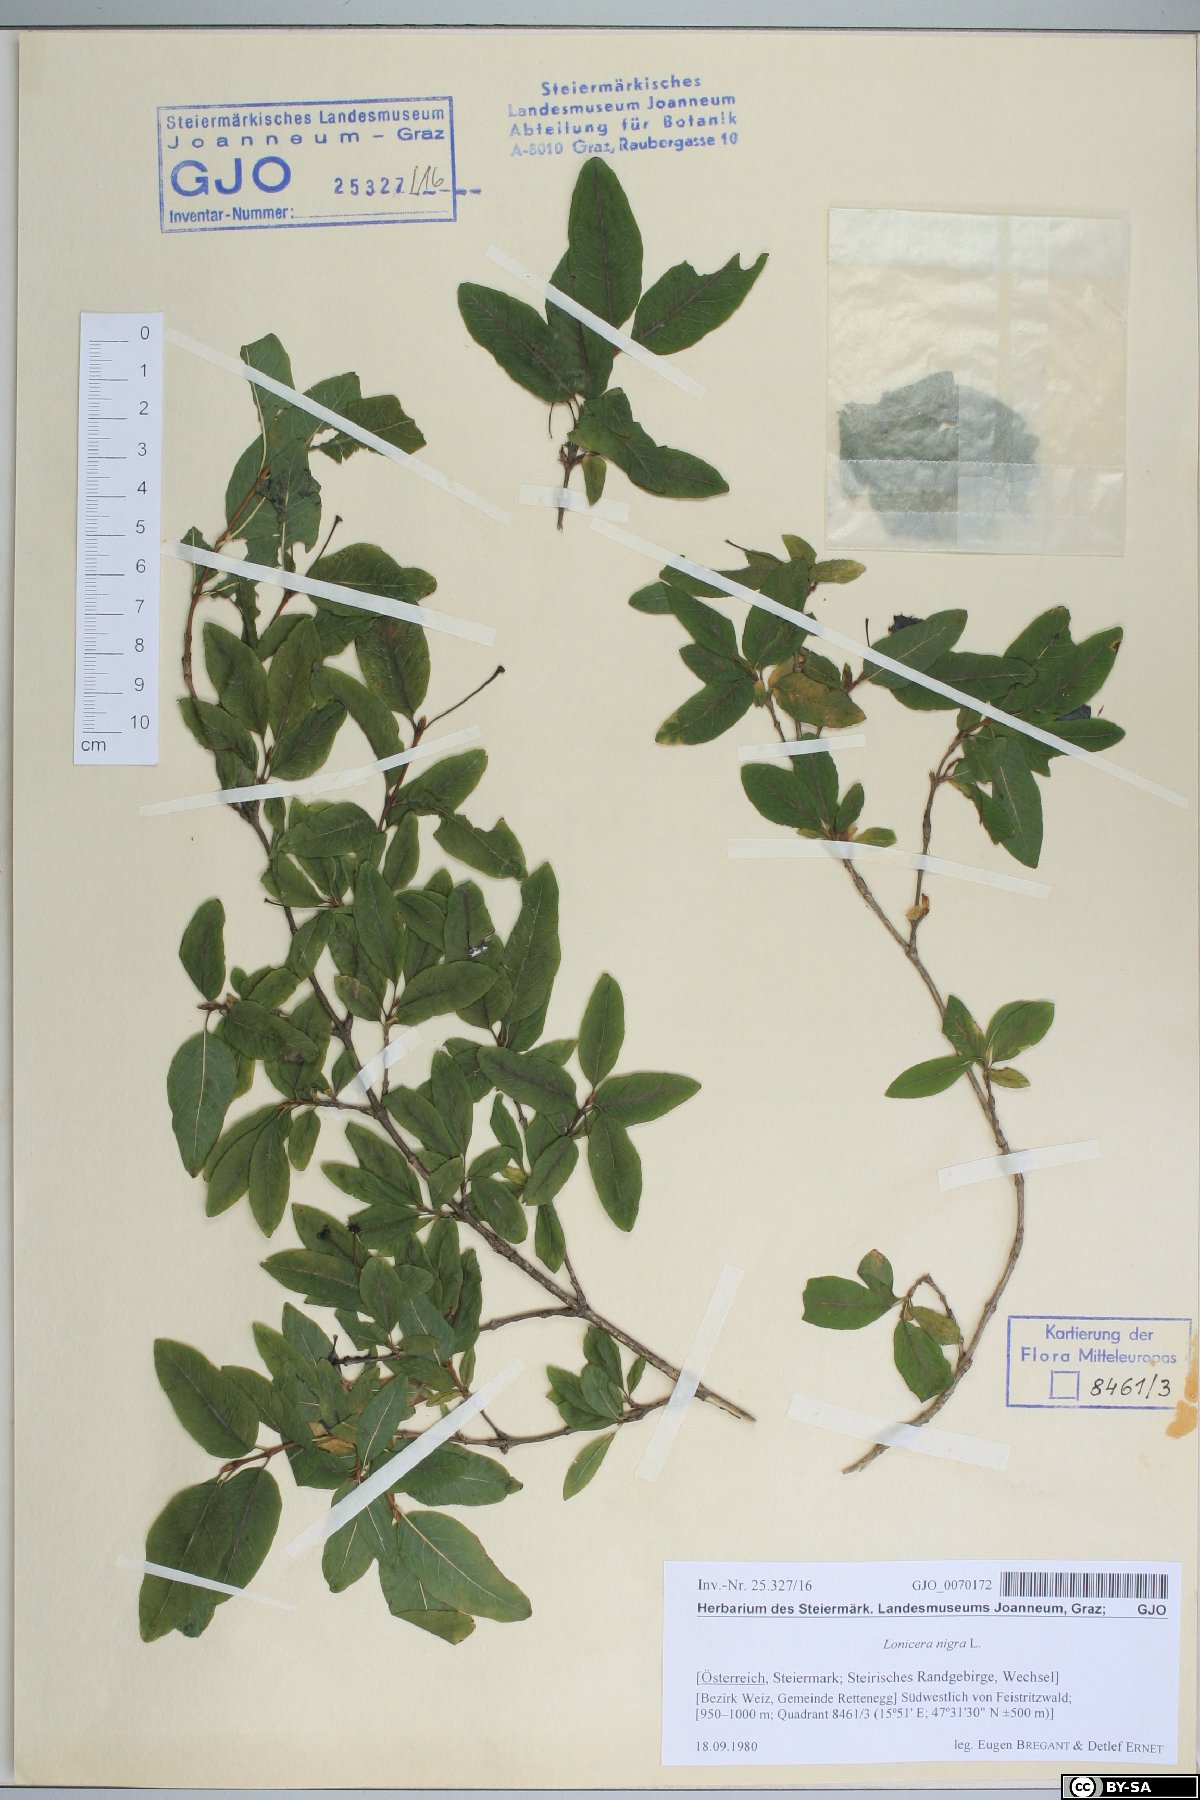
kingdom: Plantae
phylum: Tracheophyta
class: Magnoliopsida
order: Dipsacales
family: Caprifoliaceae
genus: Lonicera
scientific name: Lonicera nigra
